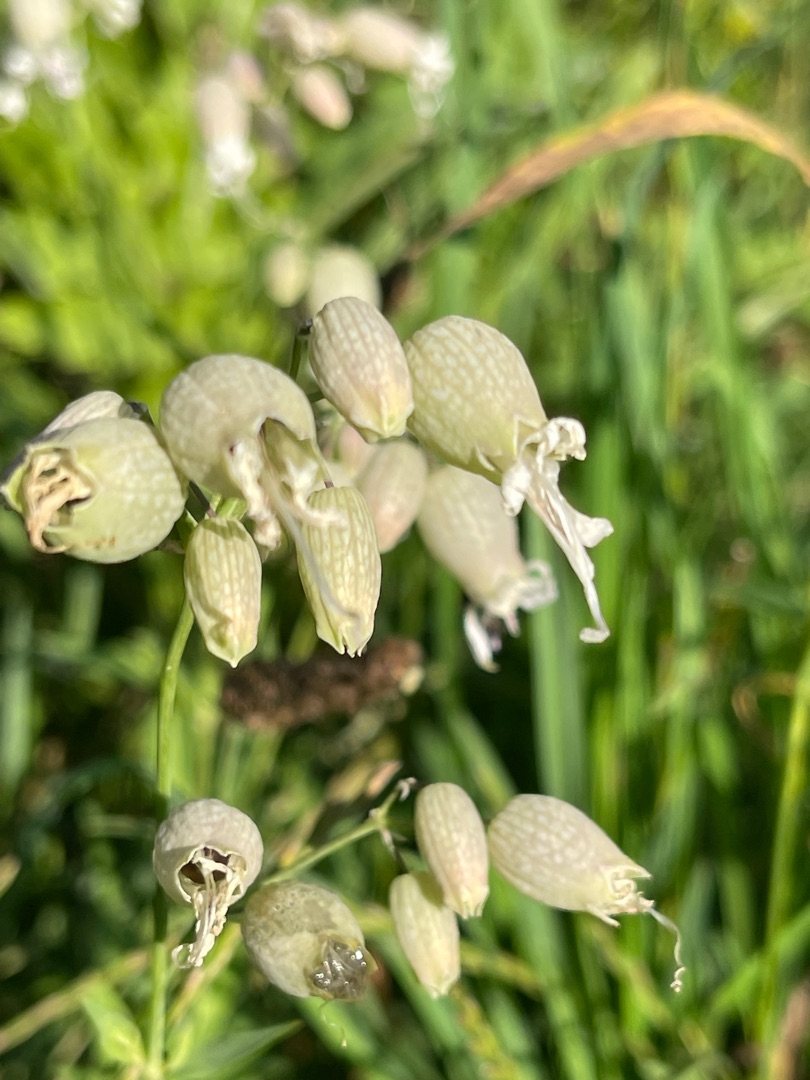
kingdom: Plantae
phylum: Tracheophyta
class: Magnoliopsida
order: Caryophyllales
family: Caryophyllaceae
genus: Silene
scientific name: Silene vulgaris
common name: Blæresmælde
